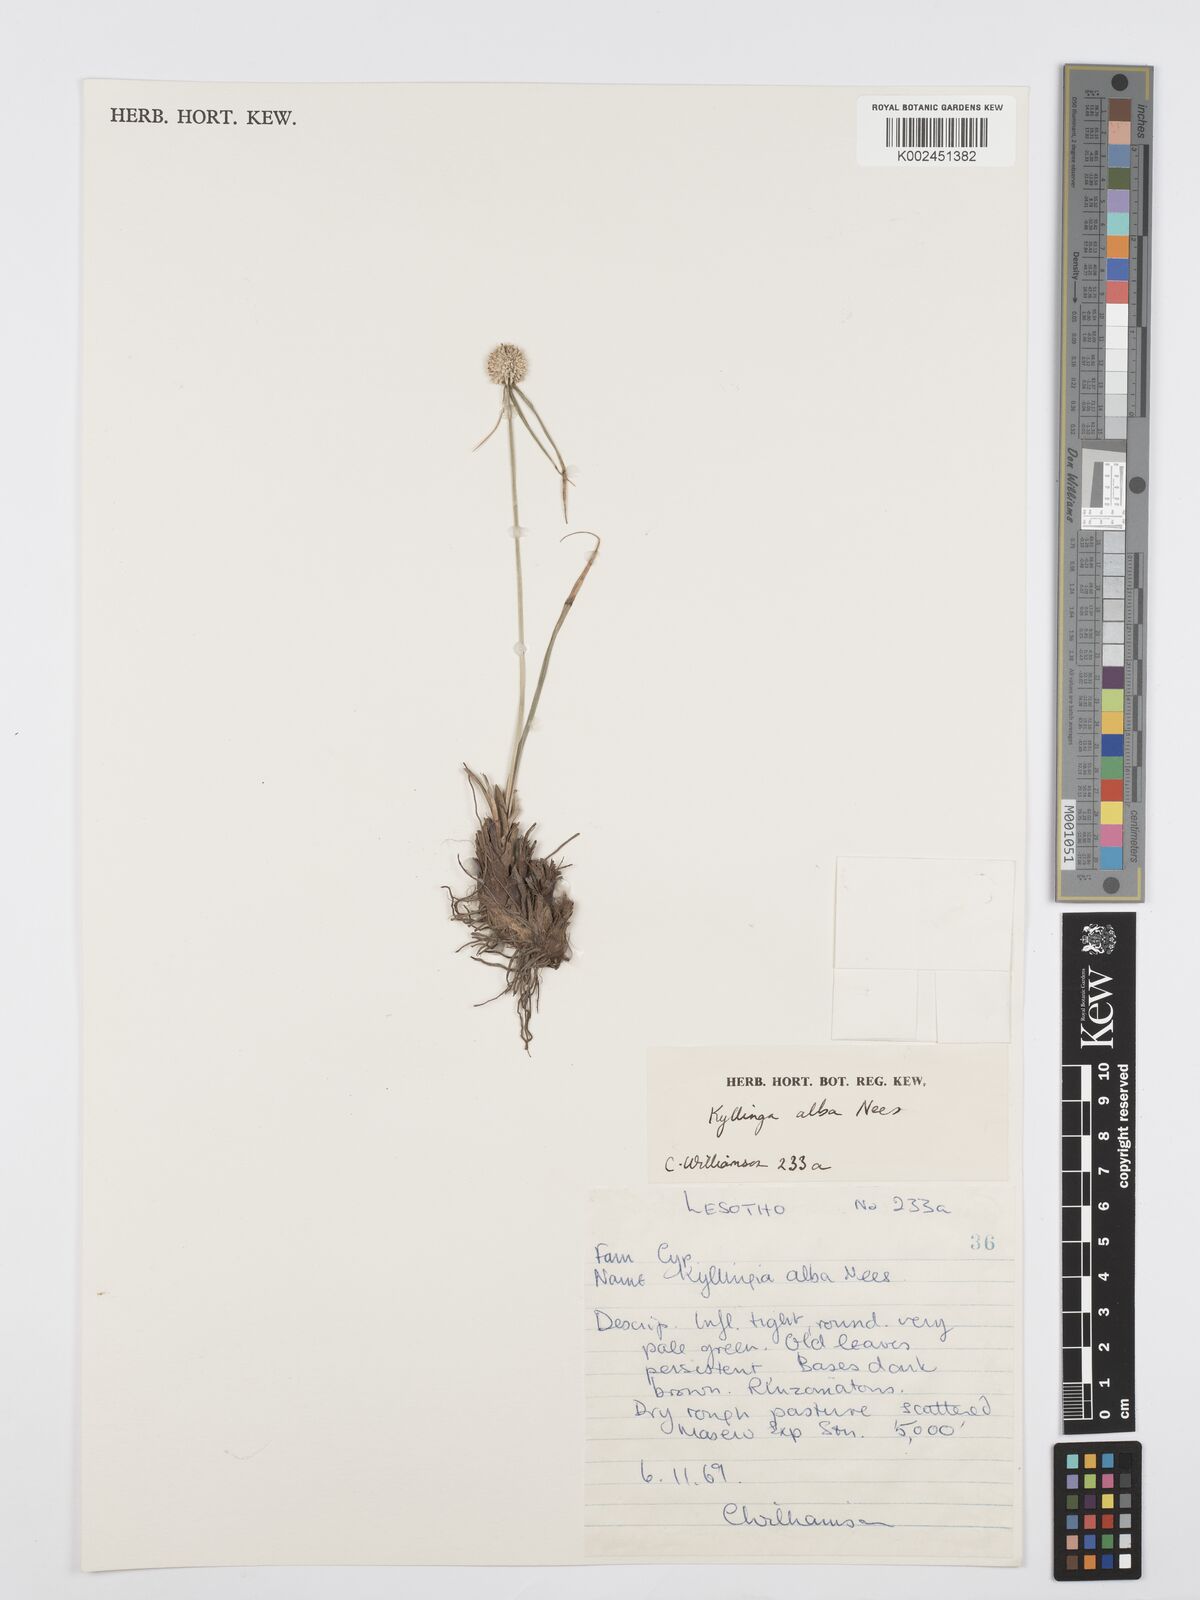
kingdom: Plantae
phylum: Tracheophyta
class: Liliopsida
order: Poales
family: Cyperaceae
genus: Cyperus
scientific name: Cyperus
